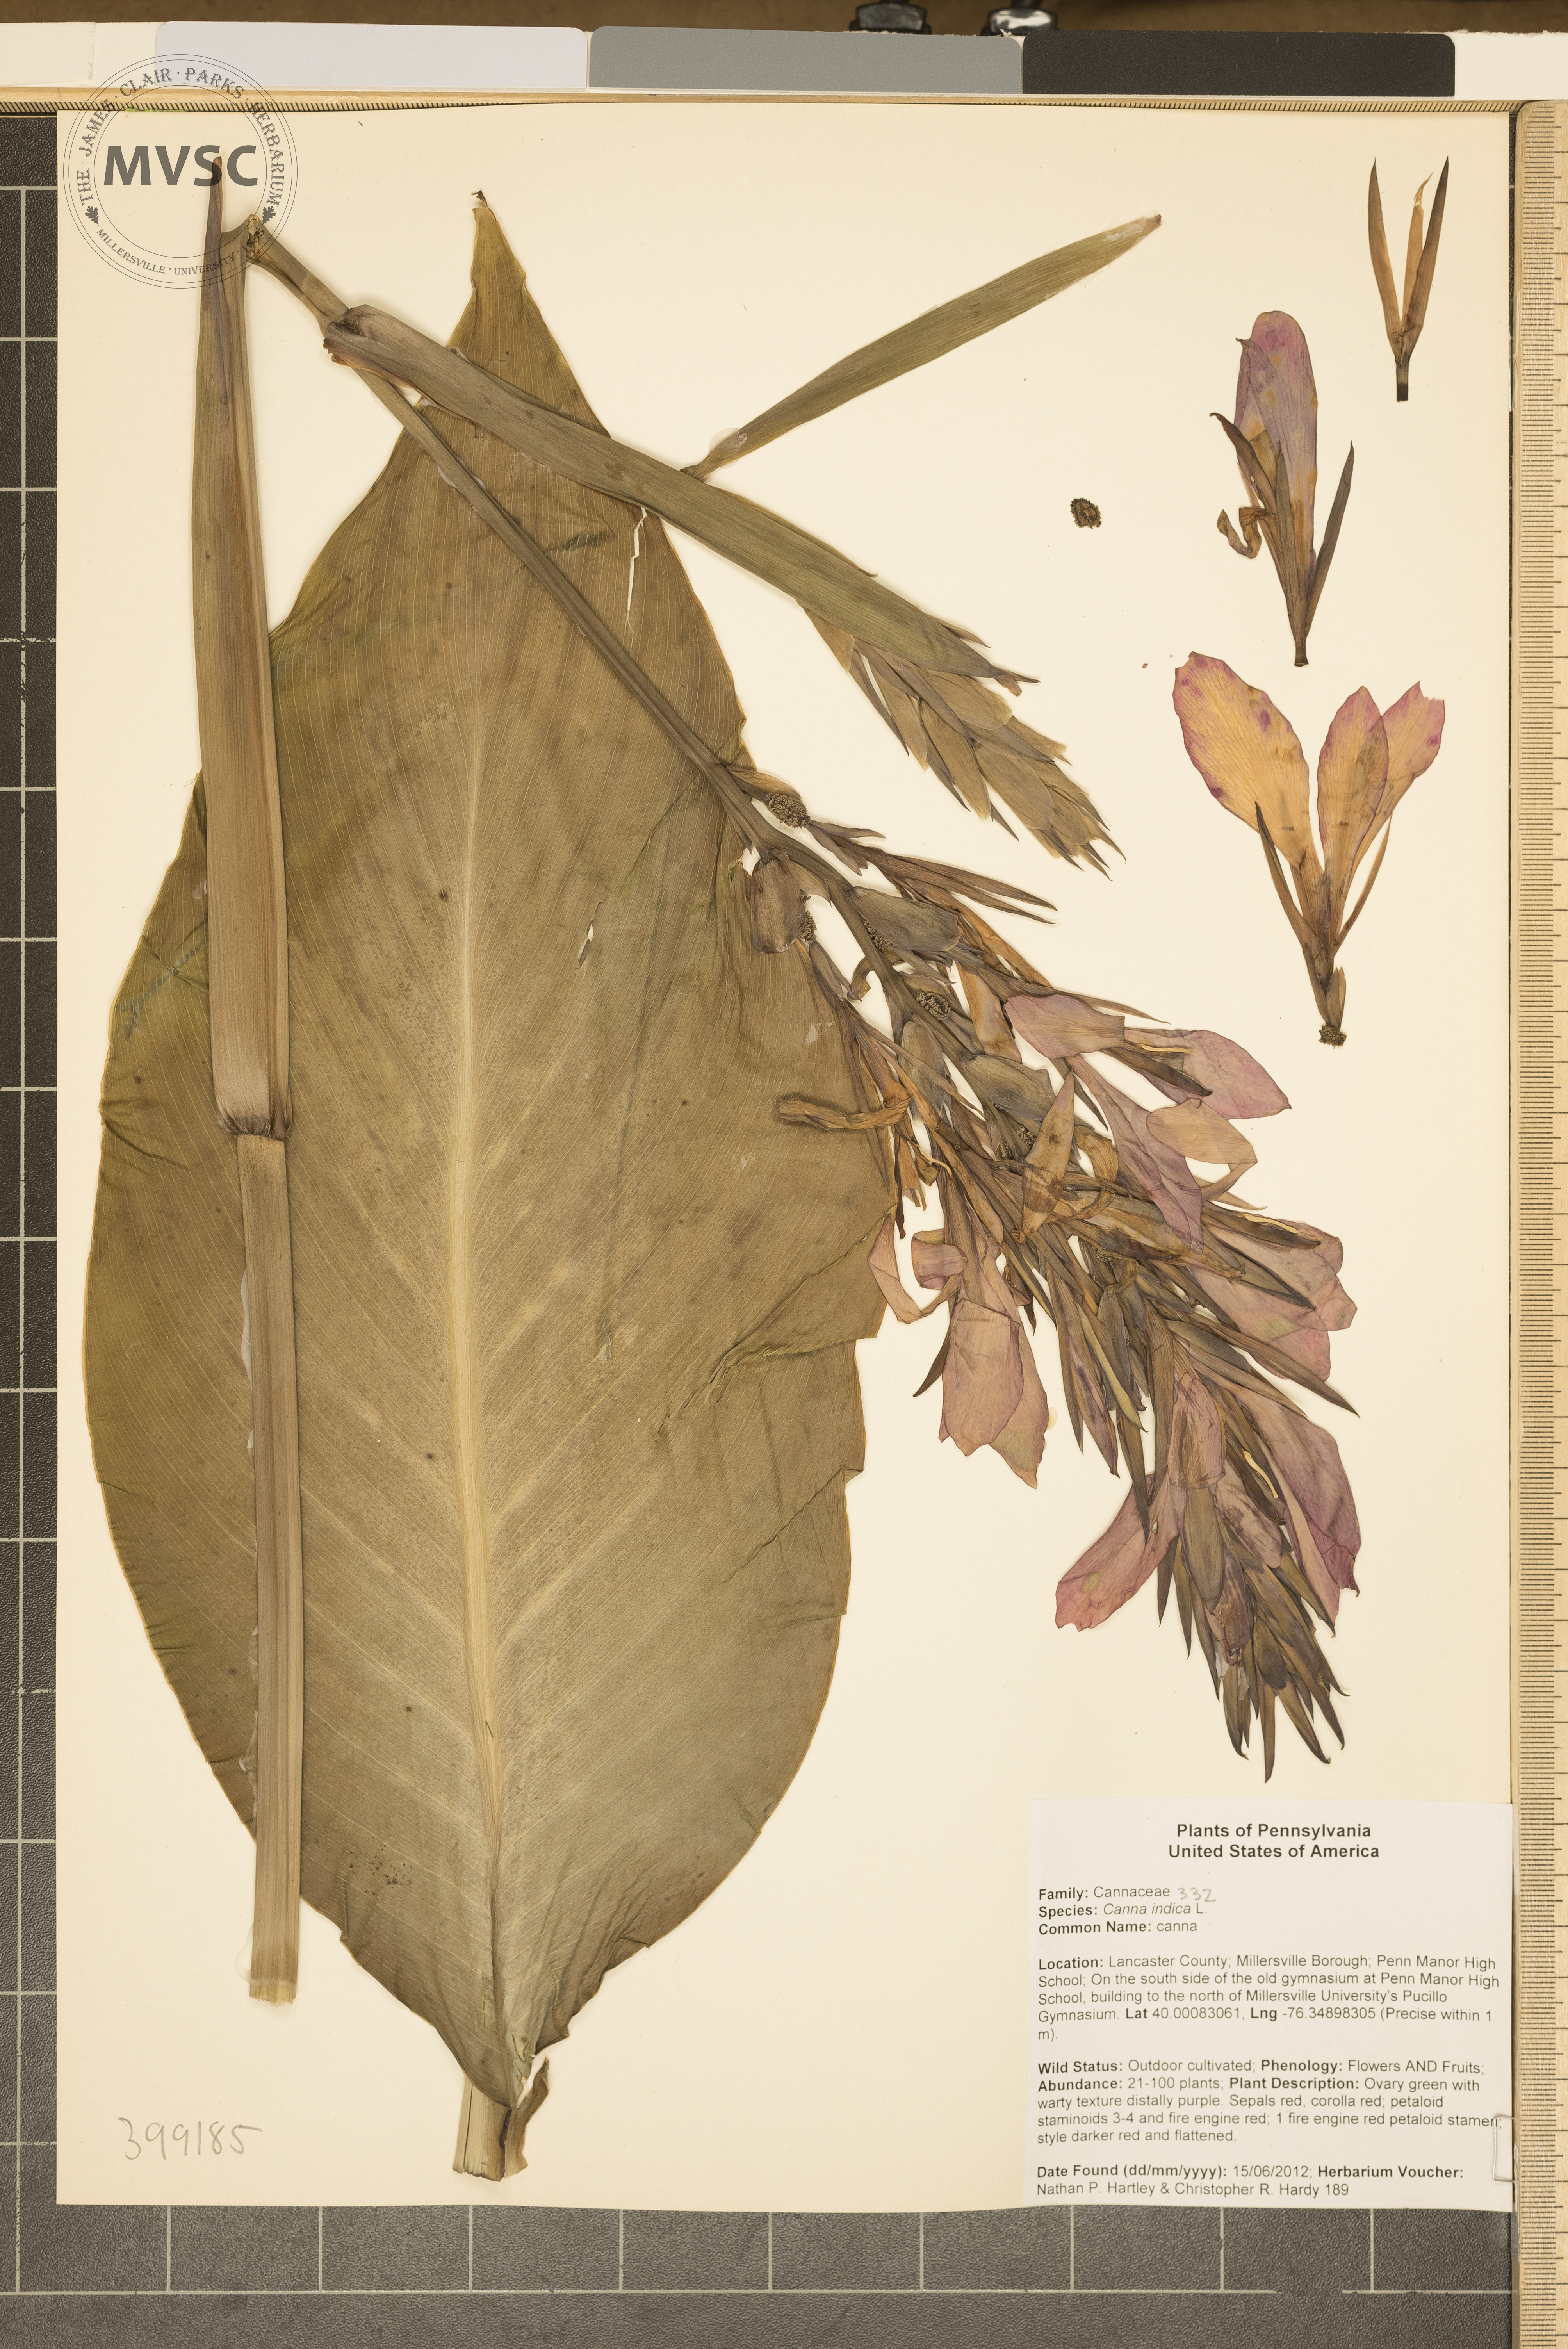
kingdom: Plantae
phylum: Tracheophyta
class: Liliopsida
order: Zingiberales
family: Cannaceae
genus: Canna
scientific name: Canna indica
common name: canna
